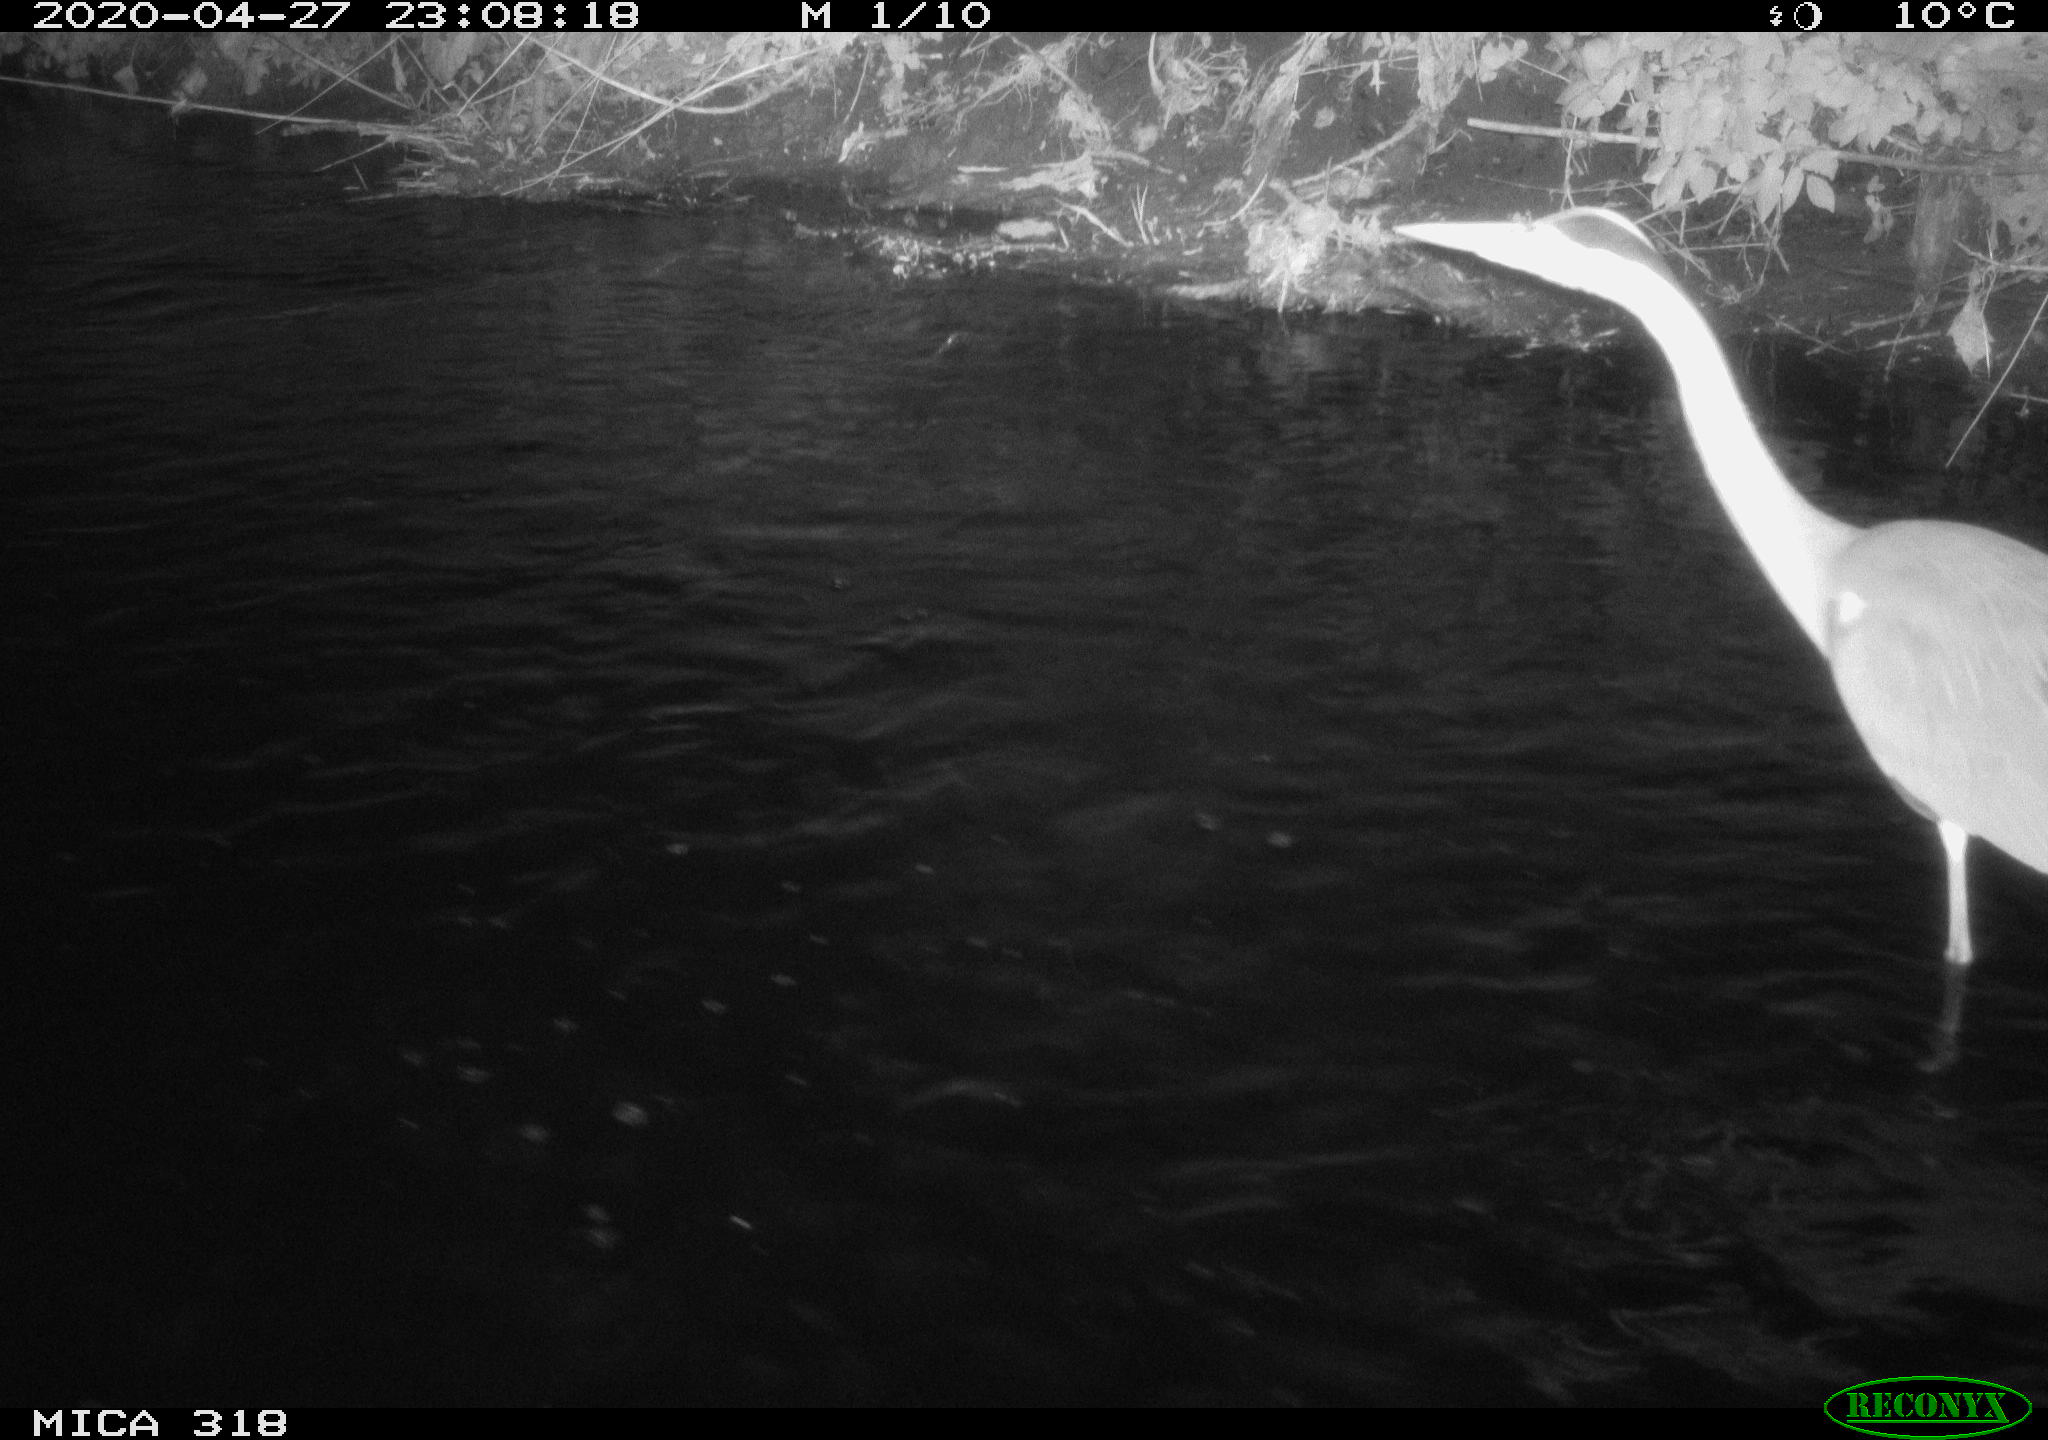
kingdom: Animalia
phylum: Chordata
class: Aves
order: Pelecaniformes
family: Ardeidae
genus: Ardea
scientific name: Ardea cinerea
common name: Grey heron
